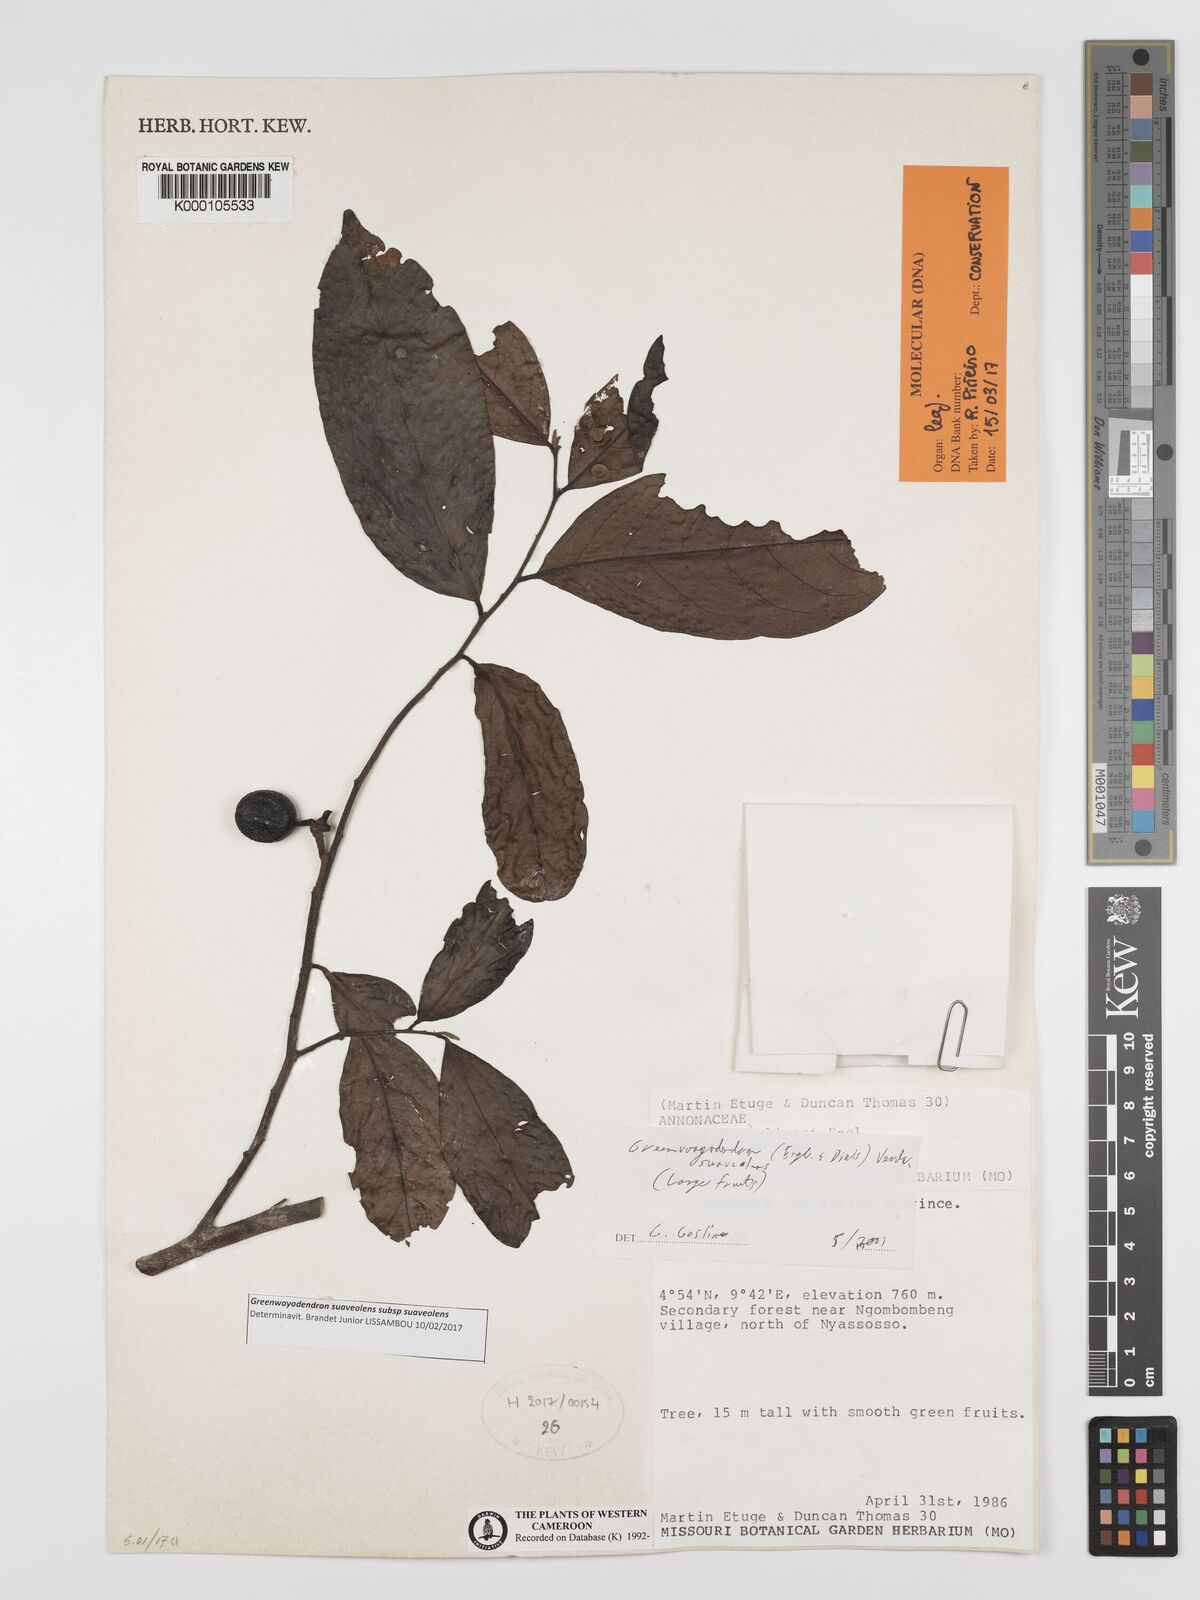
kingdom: Plantae
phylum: Tracheophyta
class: Magnoliopsida
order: Magnoliales
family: Annonaceae
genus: Greenwayodendron
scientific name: Greenwayodendron suaveolens
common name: Molinda
